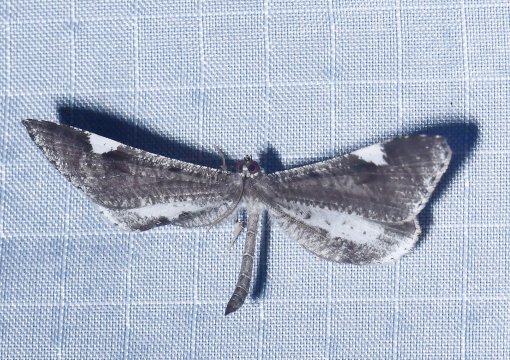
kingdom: Animalia
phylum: Arthropoda
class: Insecta
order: Lepidoptera
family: Hedylidae
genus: Macrosoma
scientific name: Macrosoma
